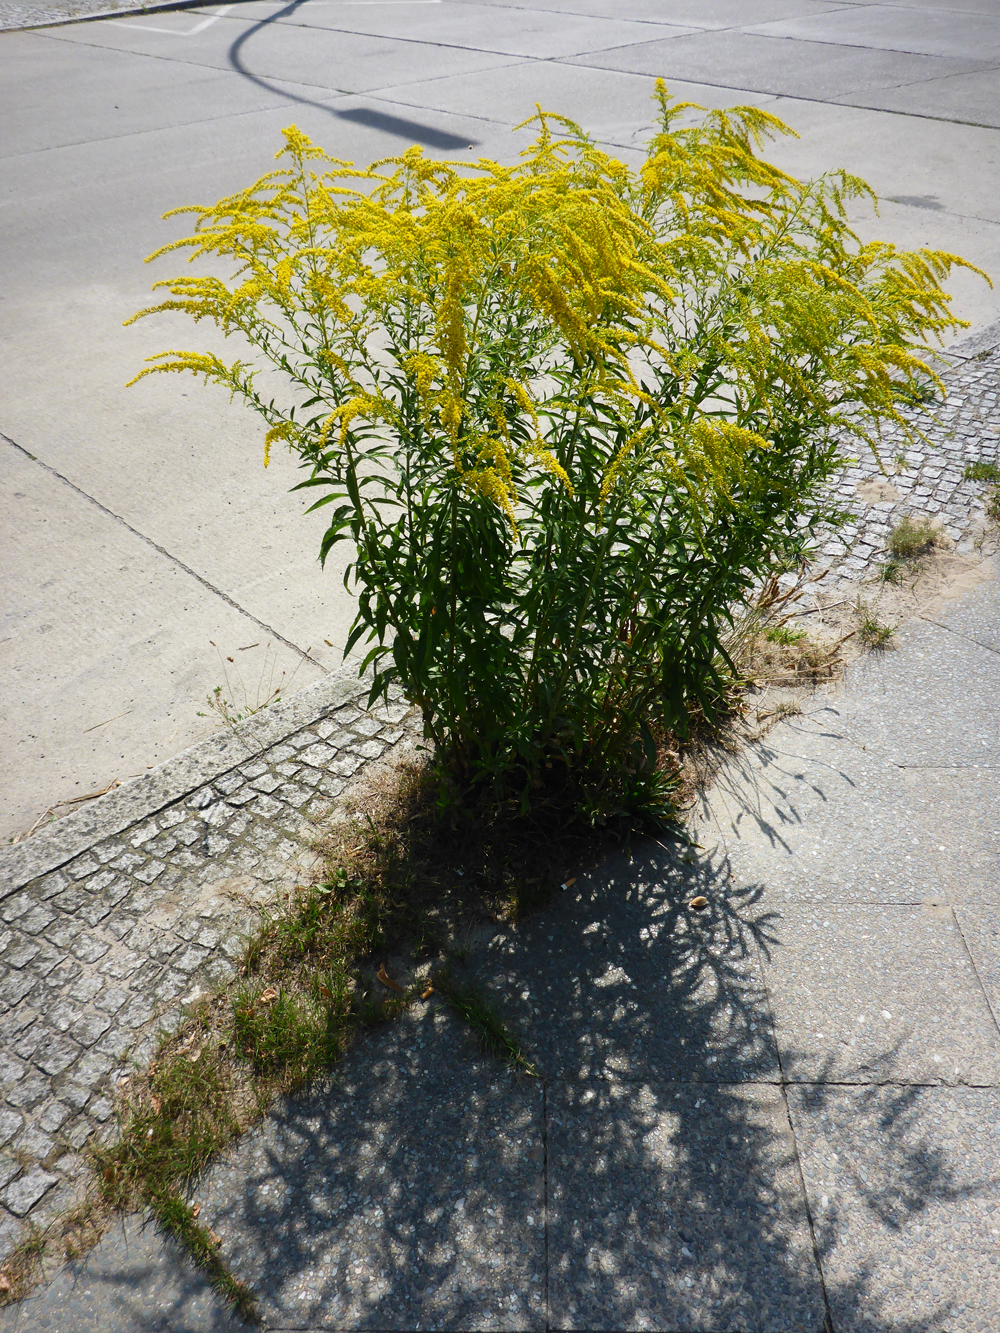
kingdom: Plantae
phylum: Tracheophyta
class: Magnoliopsida
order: Asterales
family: Asteraceae
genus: Solidago
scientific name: Solidago canadensis
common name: Canada goldenrod
